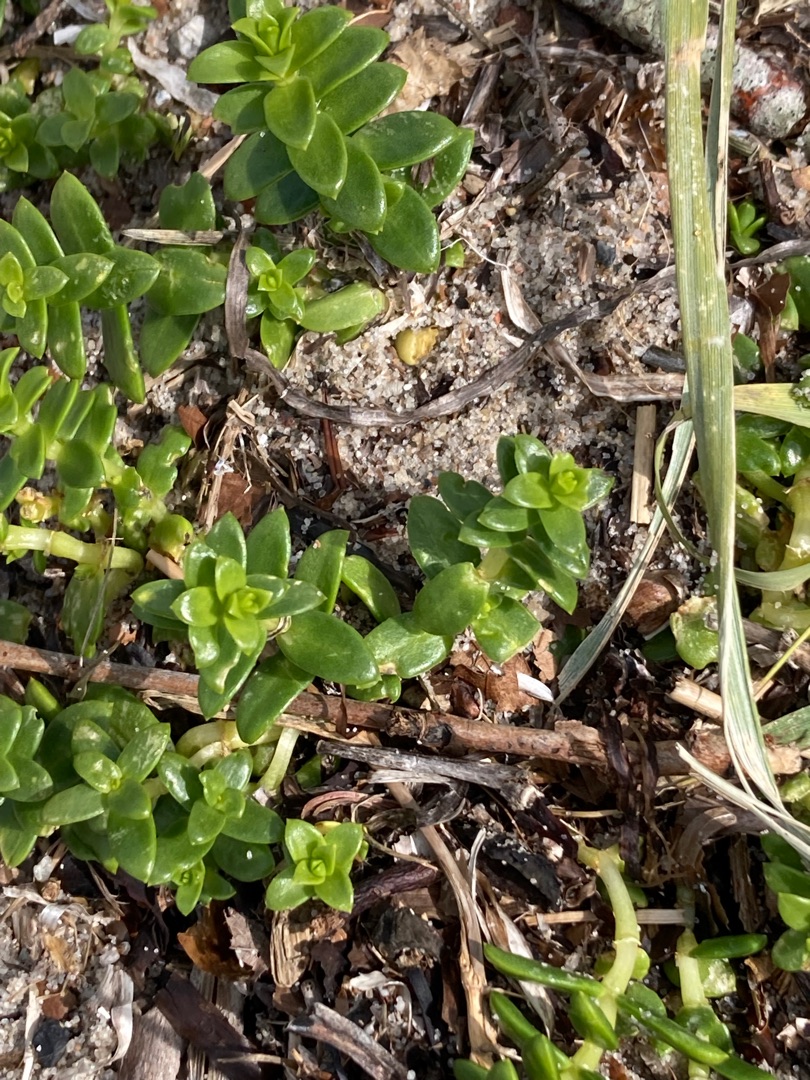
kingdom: Plantae
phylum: Tracheophyta
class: Magnoliopsida
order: Caryophyllales
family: Caryophyllaceae
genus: Honckenya
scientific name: Honckenya peploides
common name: Strandarve
